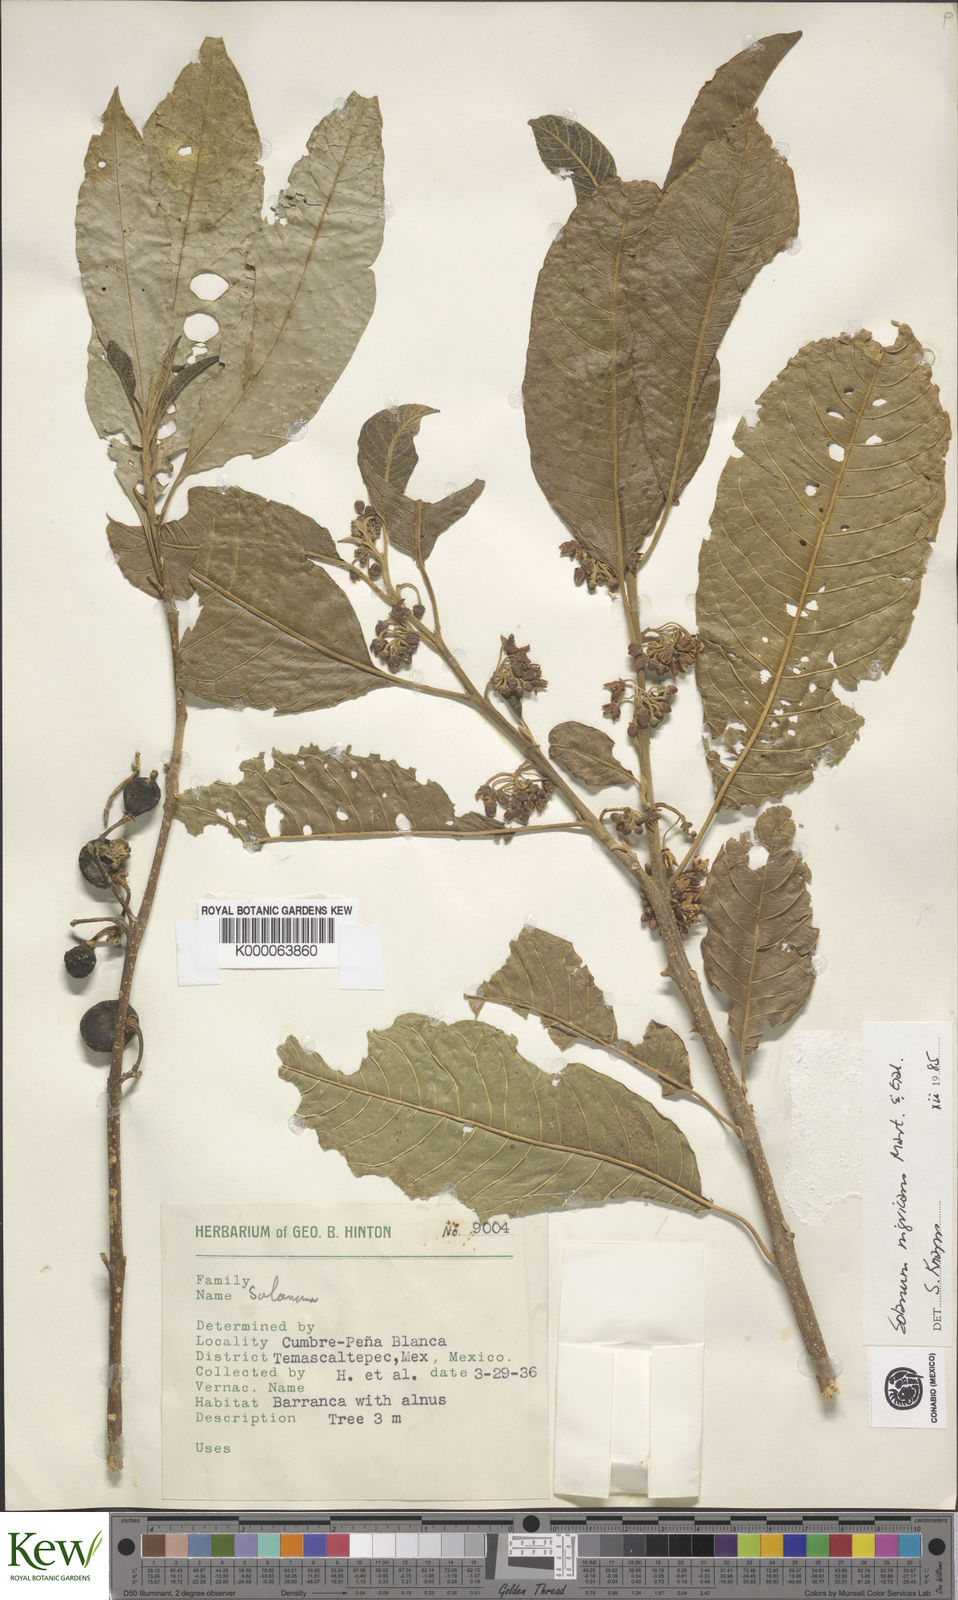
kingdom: Plantae
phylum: Tracheophyta
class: Magnoliopsida
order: Solanales
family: Solanaceae
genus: Solanum
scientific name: Solanum nigricans
